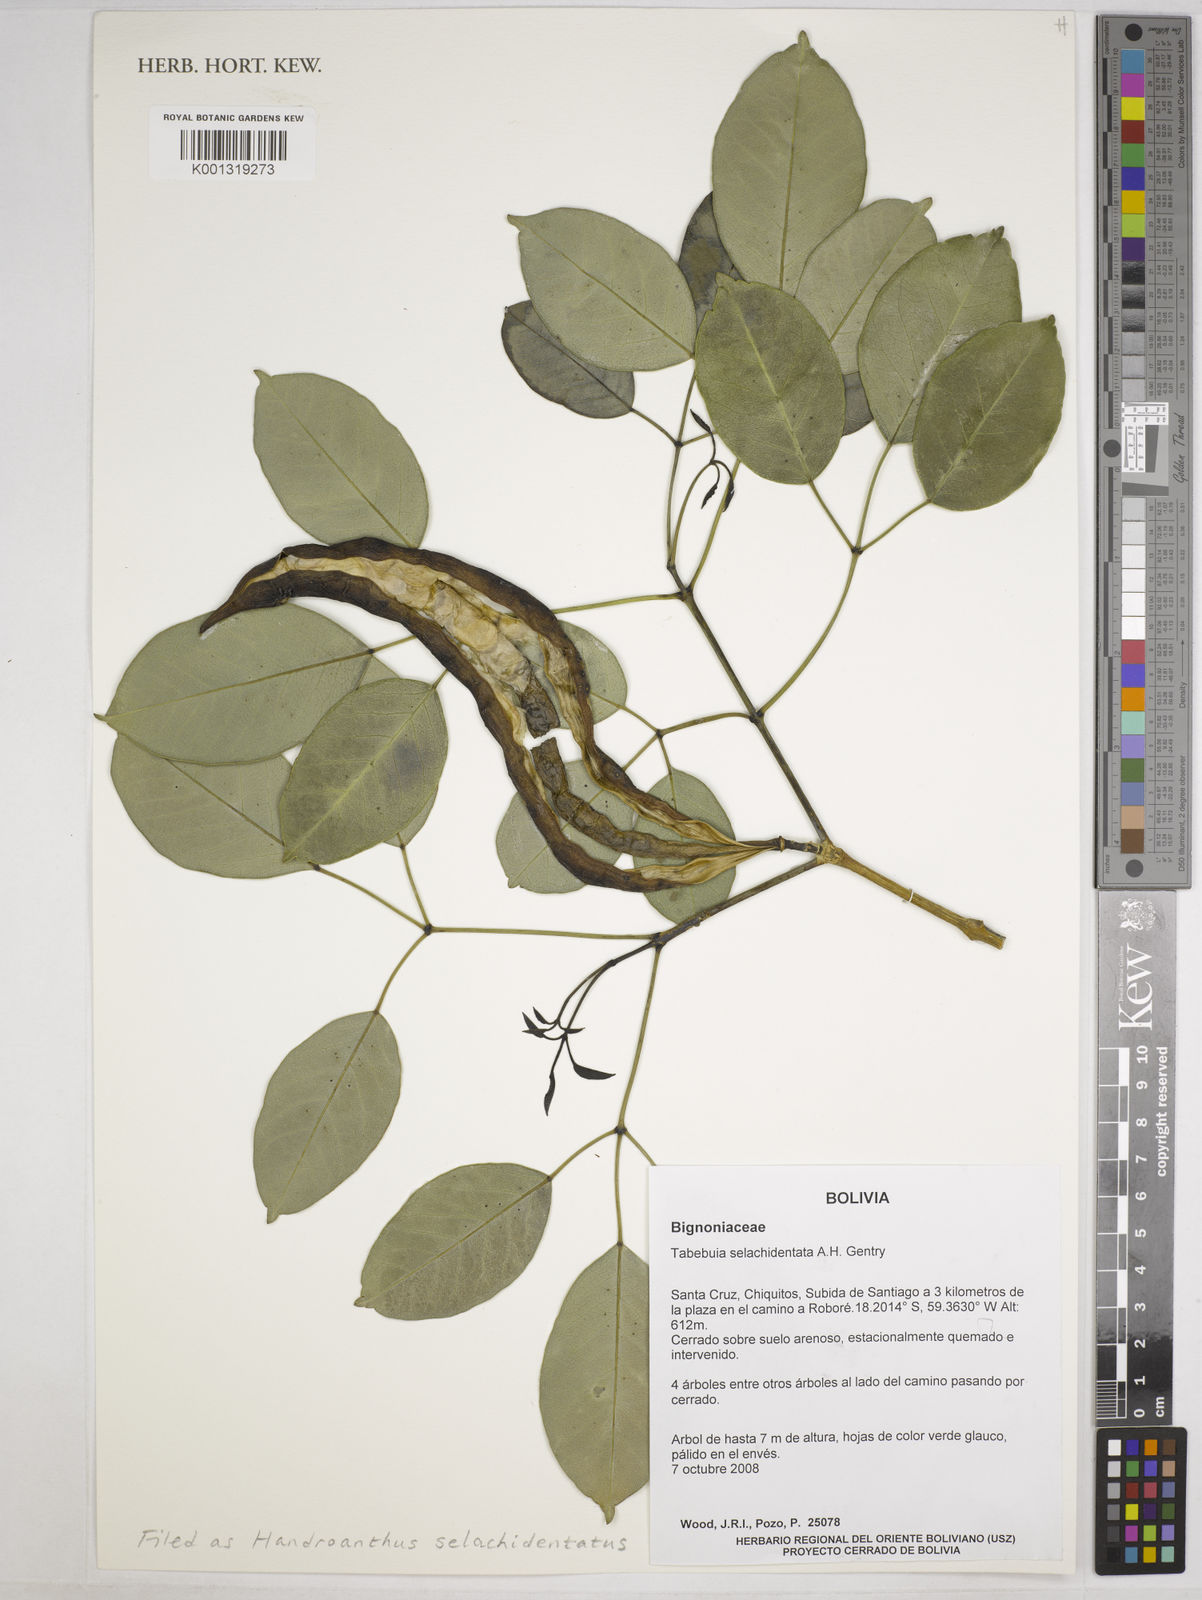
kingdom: Plantae
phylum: Tracheophyta
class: Magnoliopsida
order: Lamiales
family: Bignoniaceae
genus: Handroanthus
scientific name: Handroanthus
